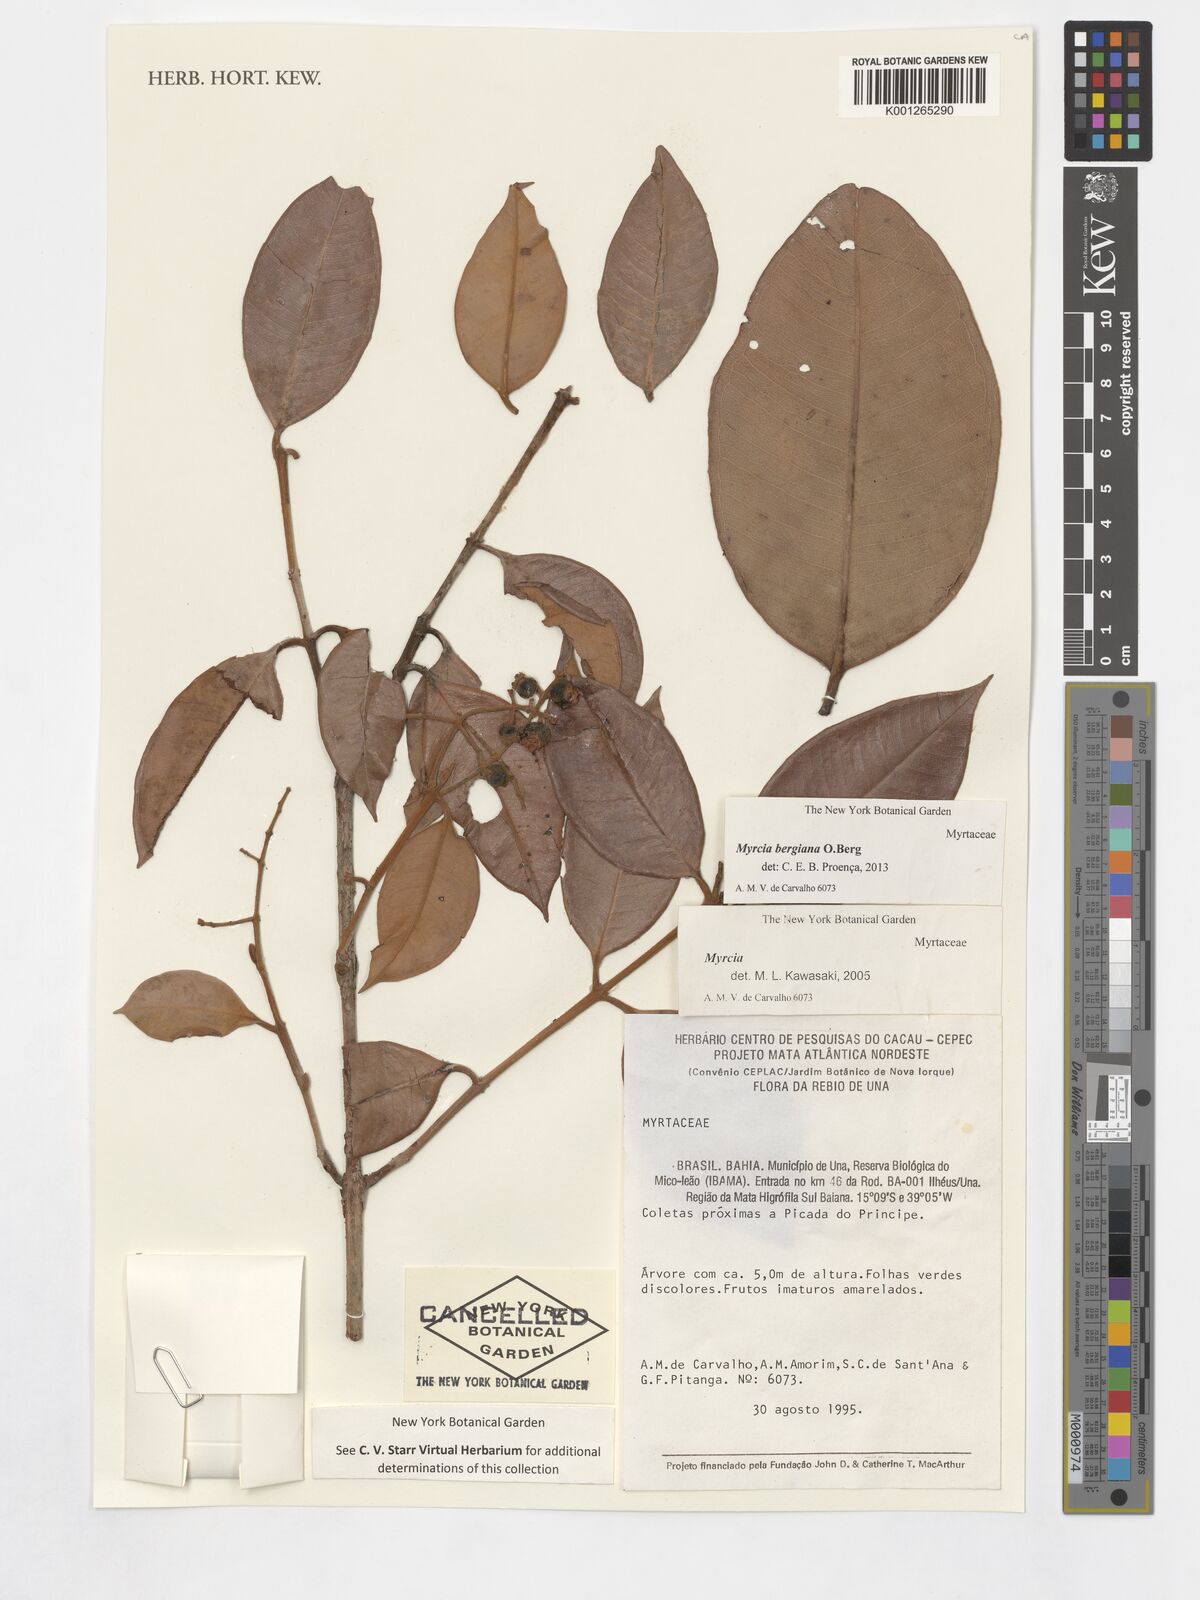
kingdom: Plantae
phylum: Tracheophyta
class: Magnoliopsida
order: Myrtales
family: Myrtaceae
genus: Myrcia
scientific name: Myrcia bergiana
